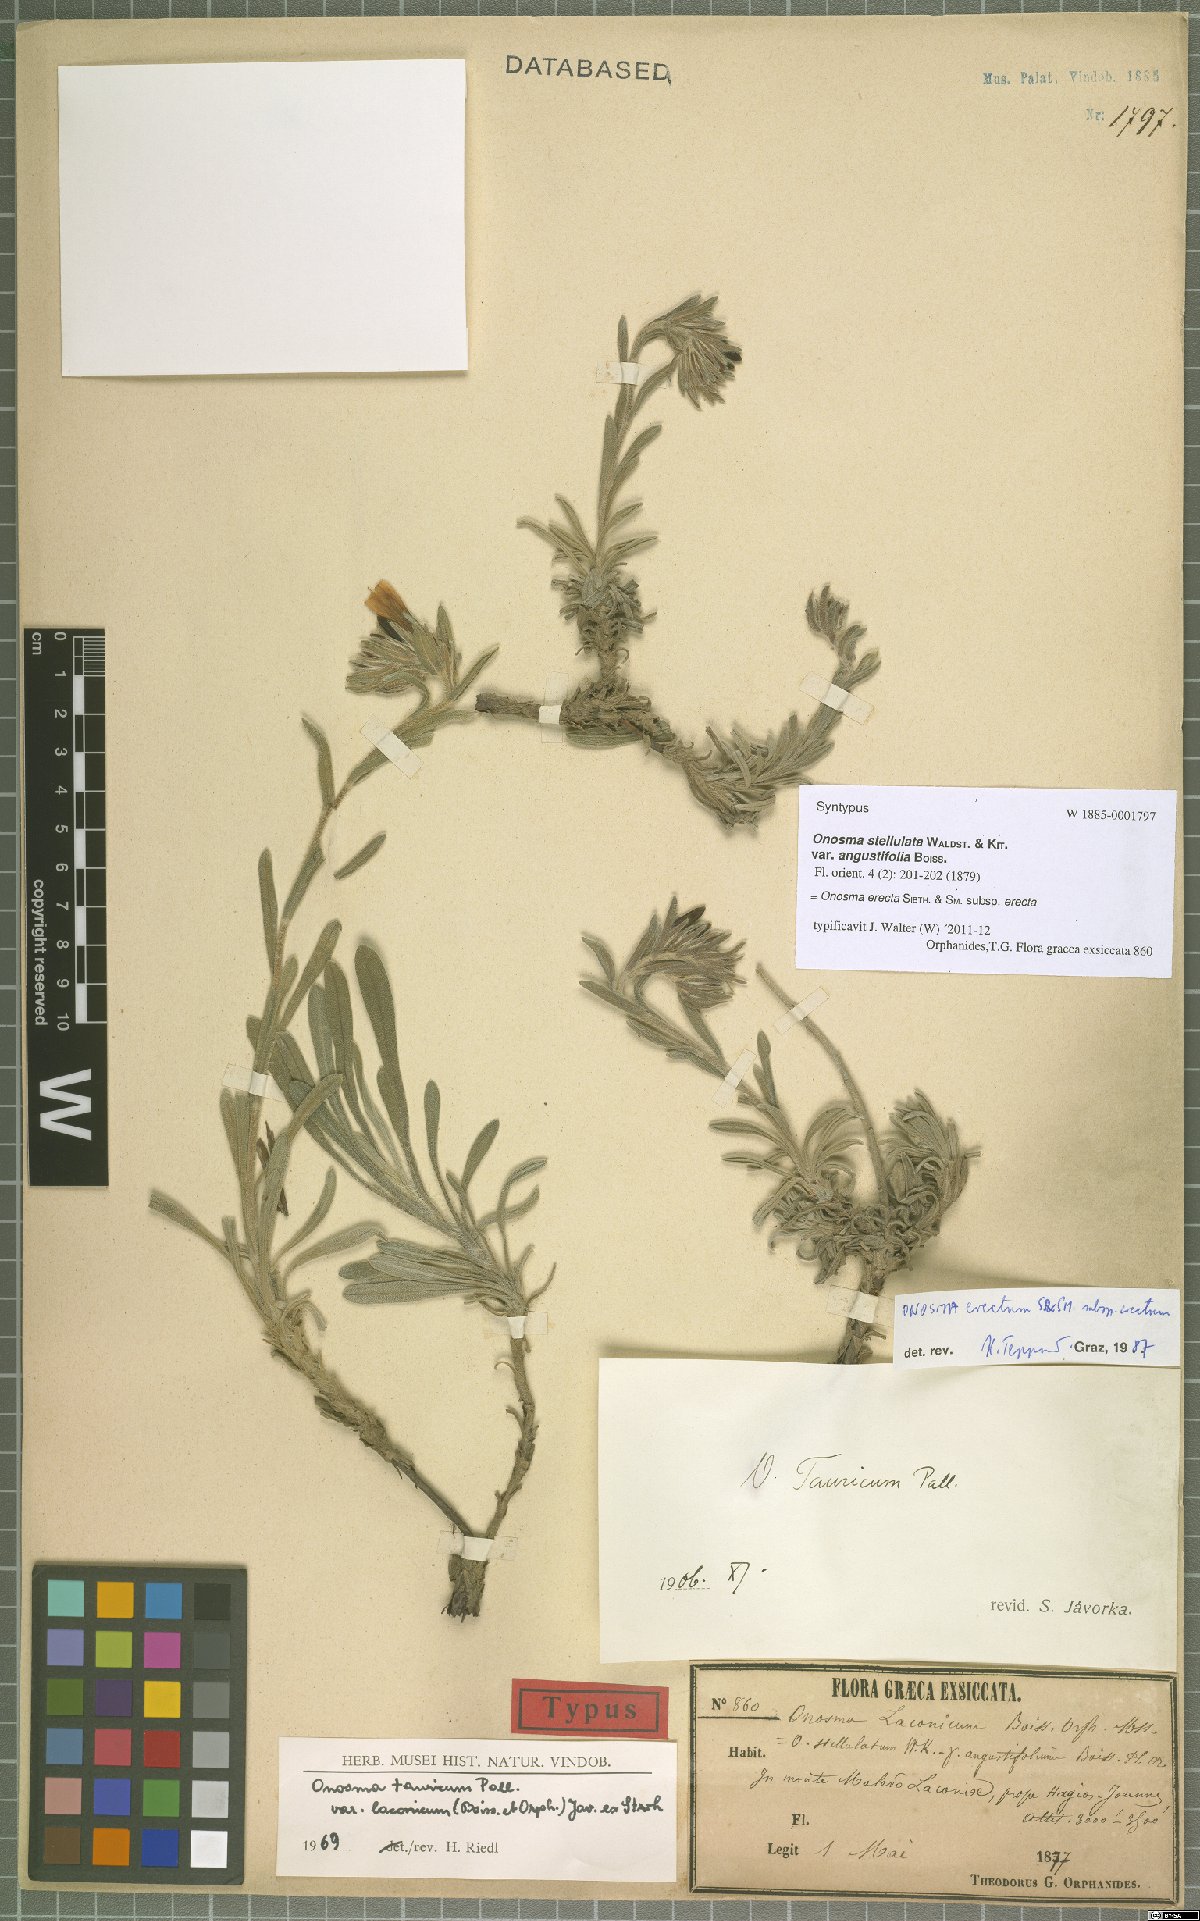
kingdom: Plantae
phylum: Tracheophyta
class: Magnoliopsida
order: Boraginales
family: Boraginaceae
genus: Onosma
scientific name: Onosma erecta
